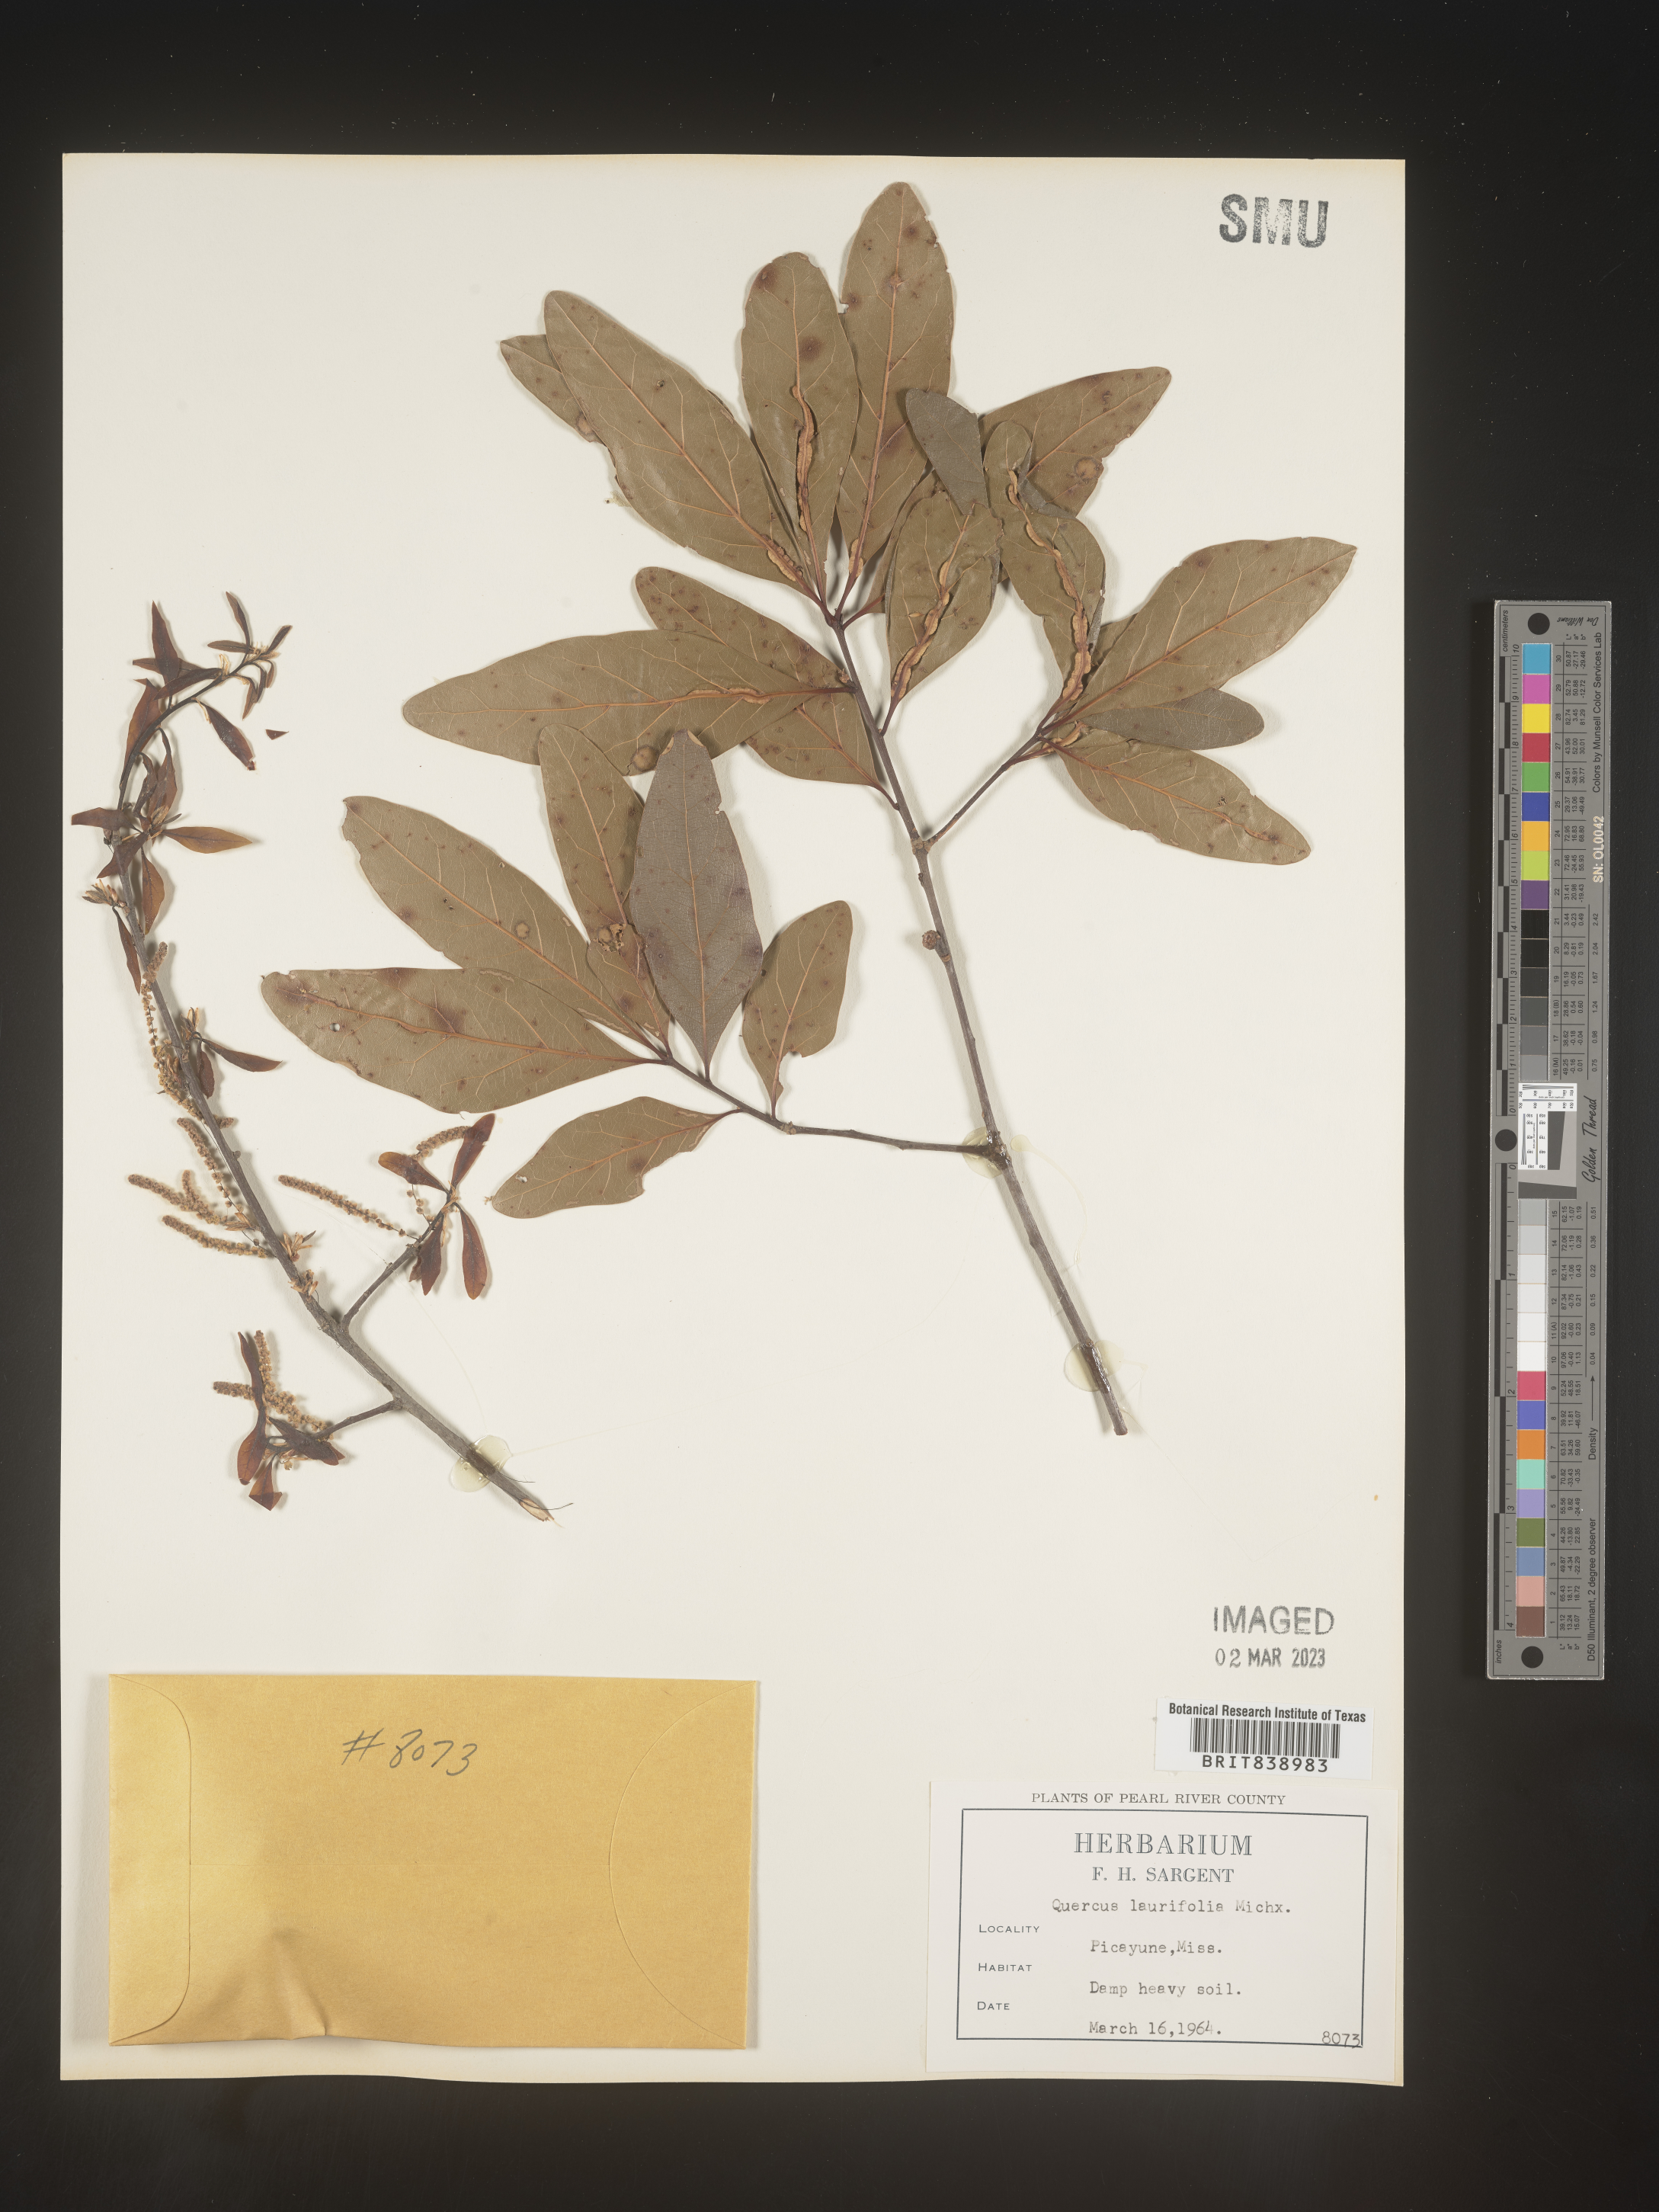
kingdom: Plantae
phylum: Tracheophyta
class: Magnoliopsida
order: Fagales
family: Fagaceae
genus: Quercus
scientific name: Quercus laurifolia
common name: Swamp laurel oak
